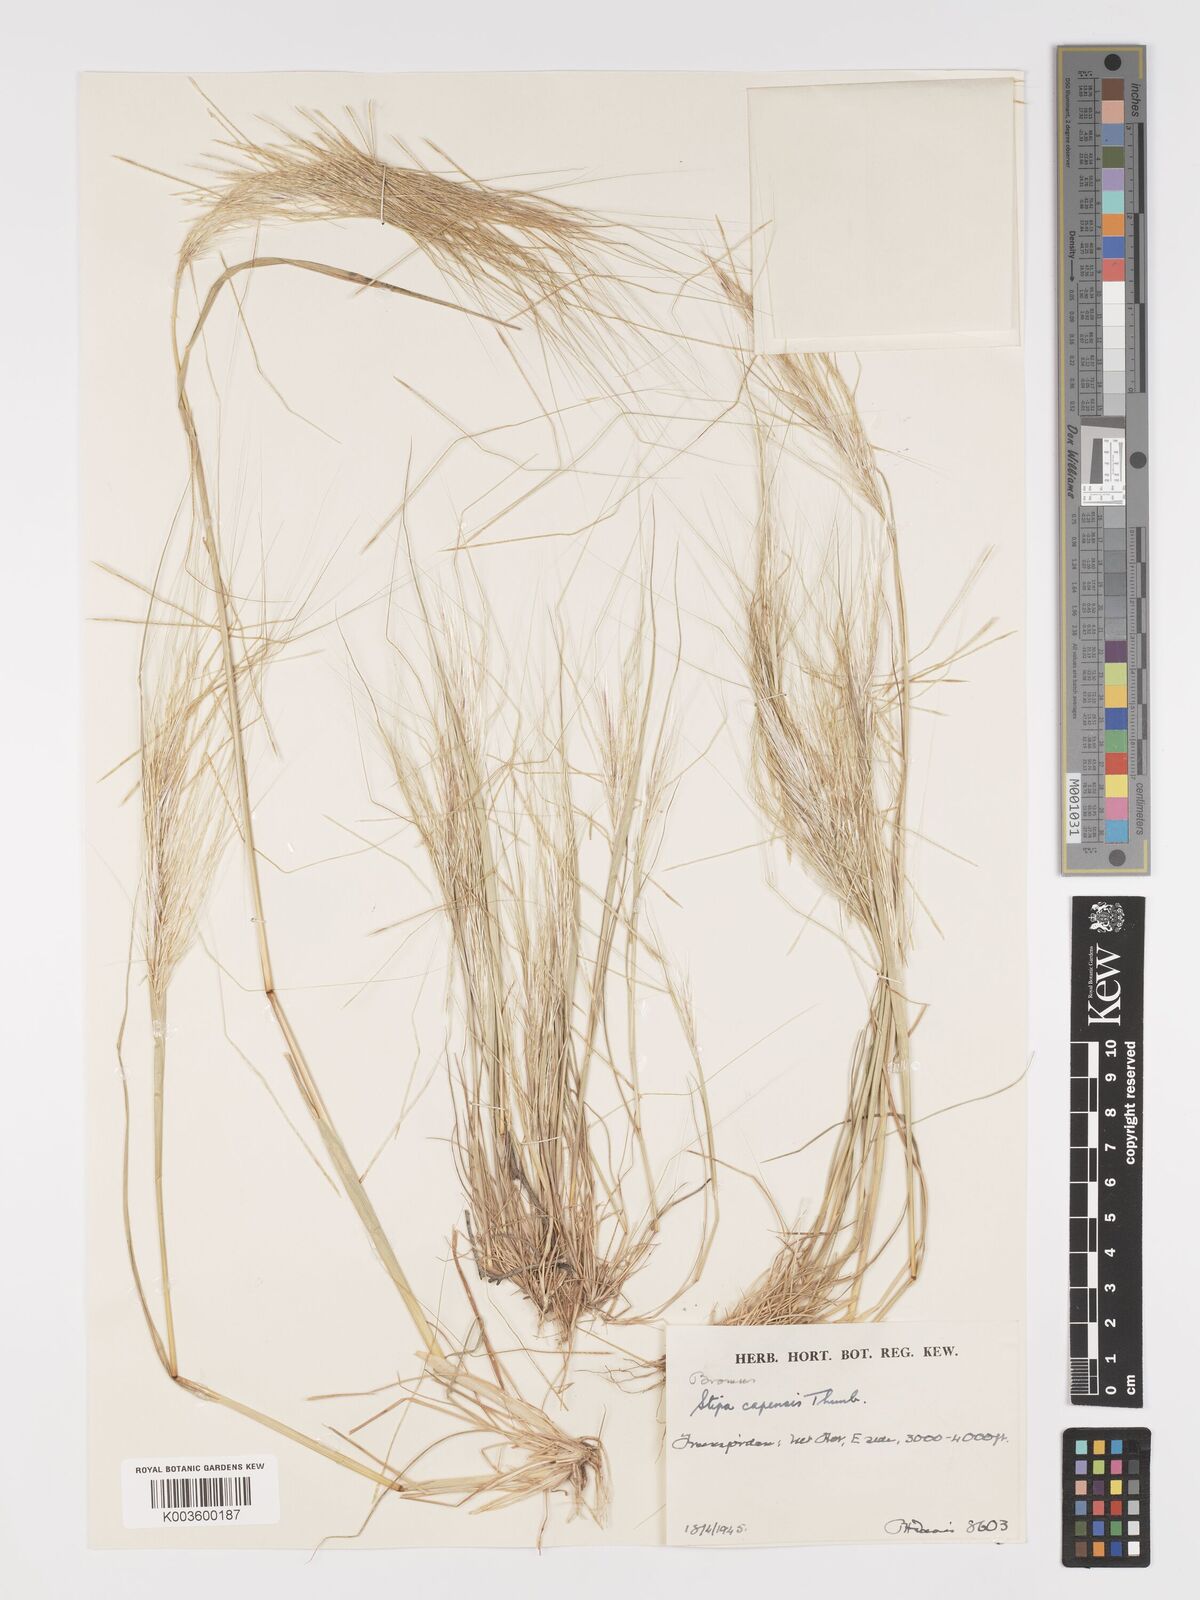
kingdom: Plantae
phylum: Tracheophyta
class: Liliopsida
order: Poales
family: Poaceae
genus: Stipellula
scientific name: Stipellula capensis
